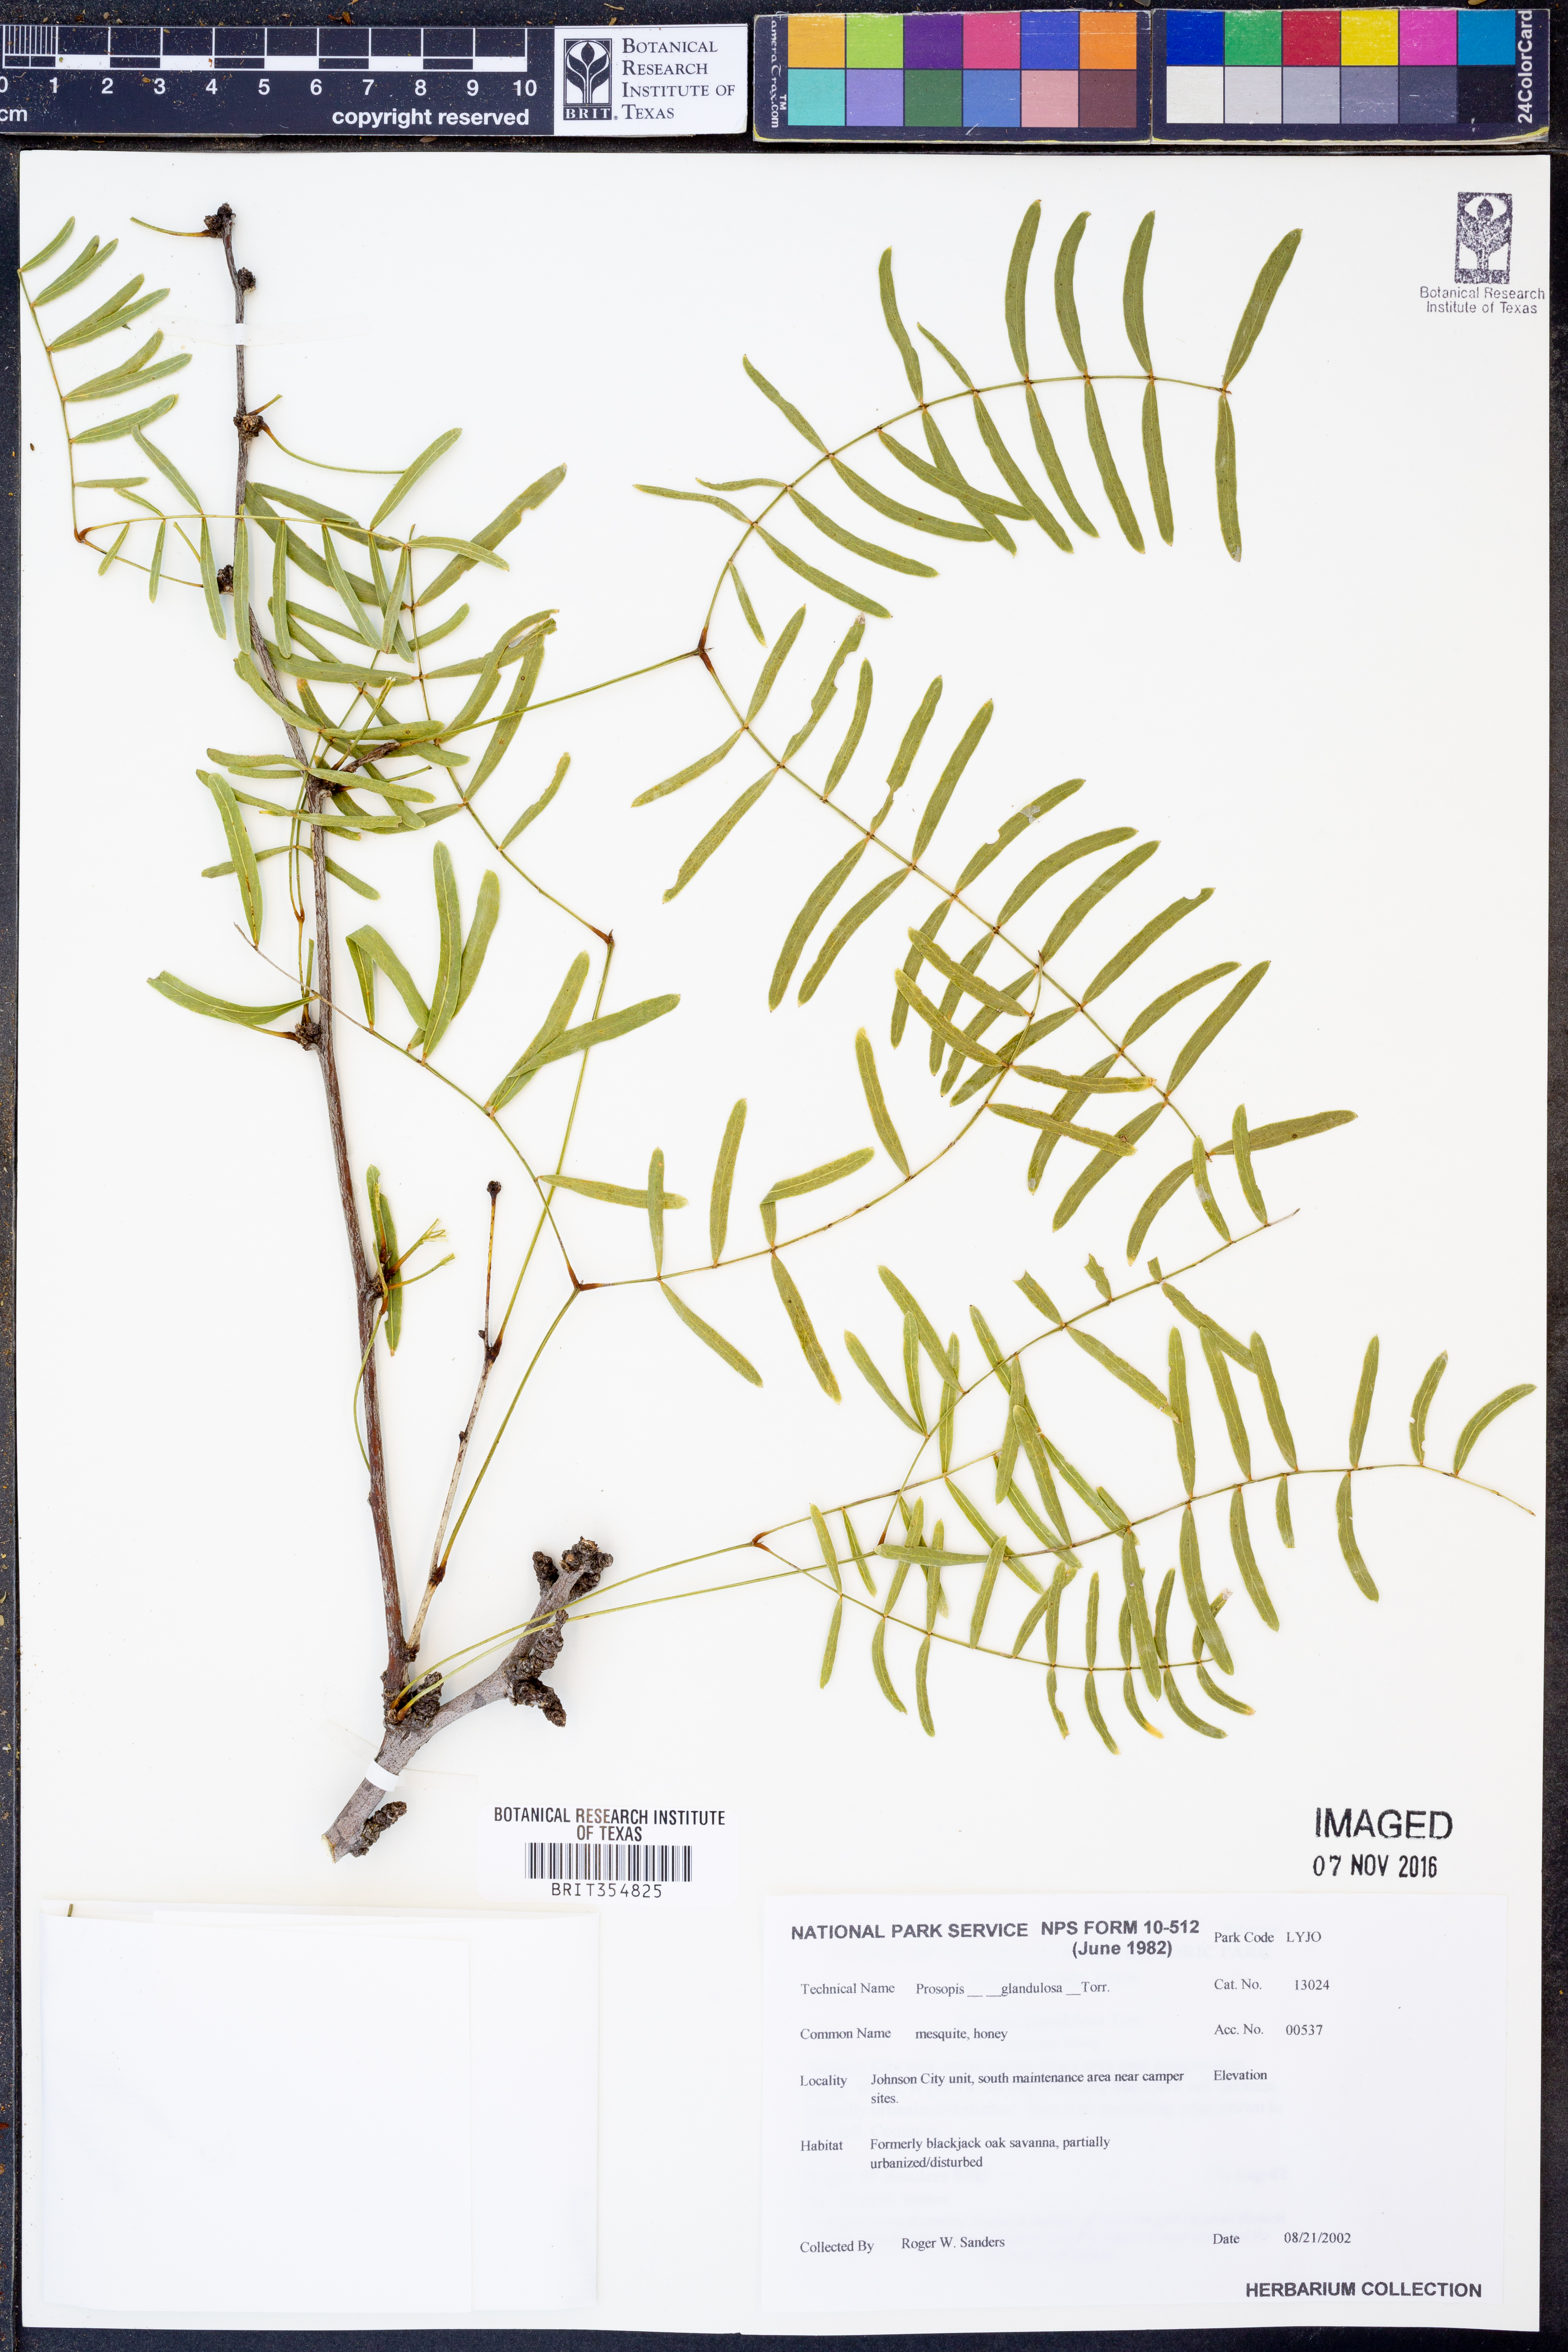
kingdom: Plantae
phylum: Tracheophyta
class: Magnoliopsida
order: Fabales
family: Fabaceae
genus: Prosopis
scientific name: Prosopis glandulosa
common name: Honey mesquite
